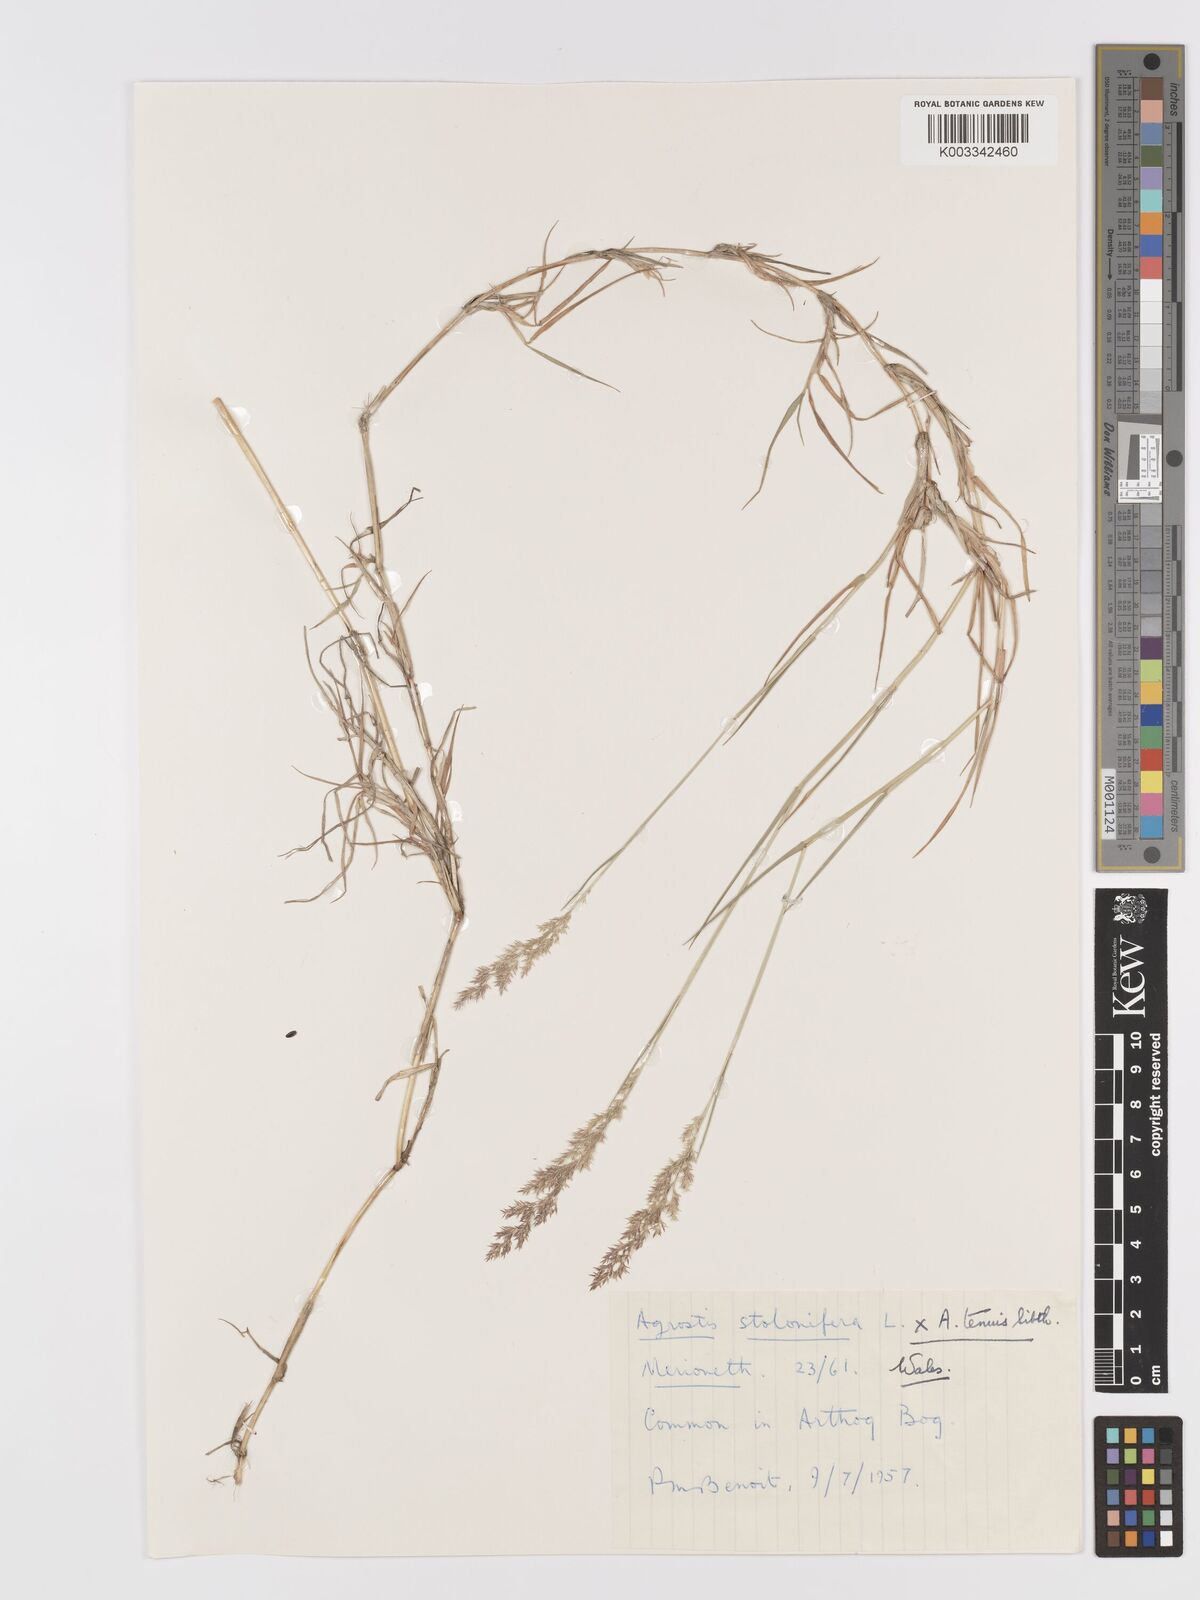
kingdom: Plantae
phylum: Tracheophyta
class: Liliopsida
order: Poales
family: Poaceae
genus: Agrostis
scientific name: Agrostis capillaris
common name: Colonial bentgrass
